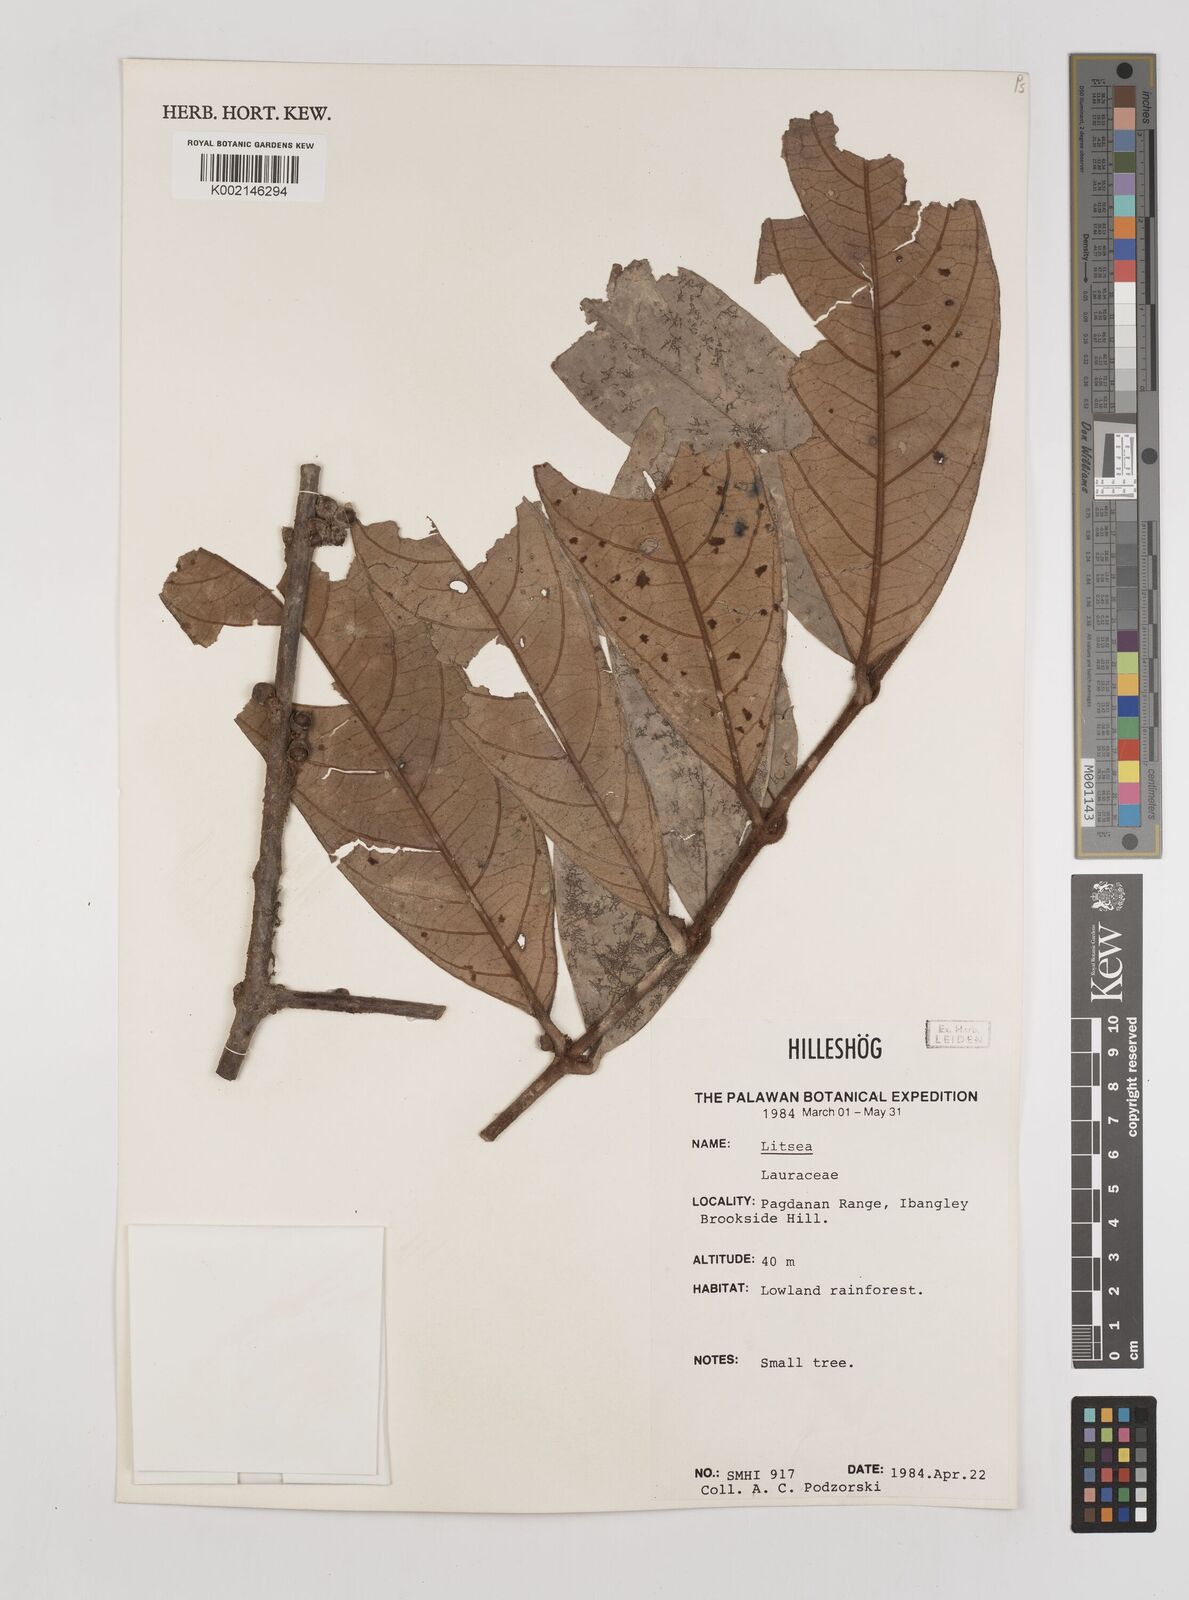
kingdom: Plantae
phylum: Tracheophyta
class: Magnoliopsida
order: Laurales
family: Lauraceae
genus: Litsea
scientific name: Litsea
